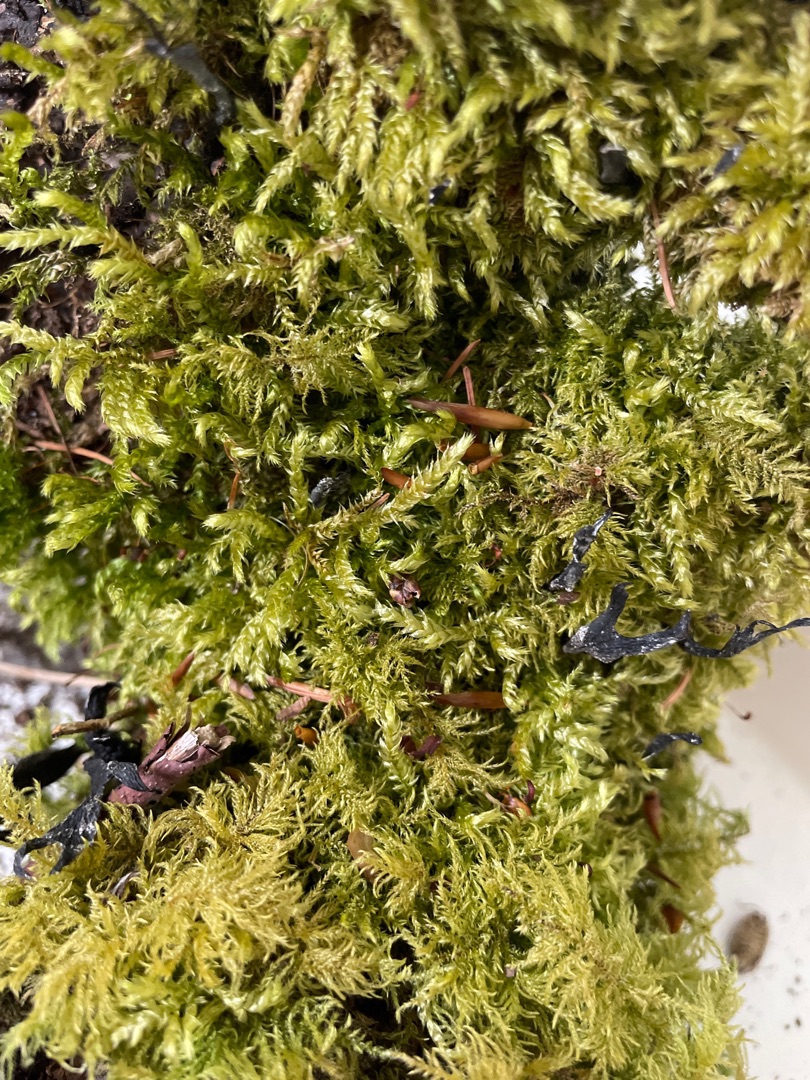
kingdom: Plantae
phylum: Bryophyta
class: Bryopsida
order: Hypnales
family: Brachytheciaceae
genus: Brachythecium
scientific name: Brachythecium rutabulum
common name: Almindelig kortkapsel
